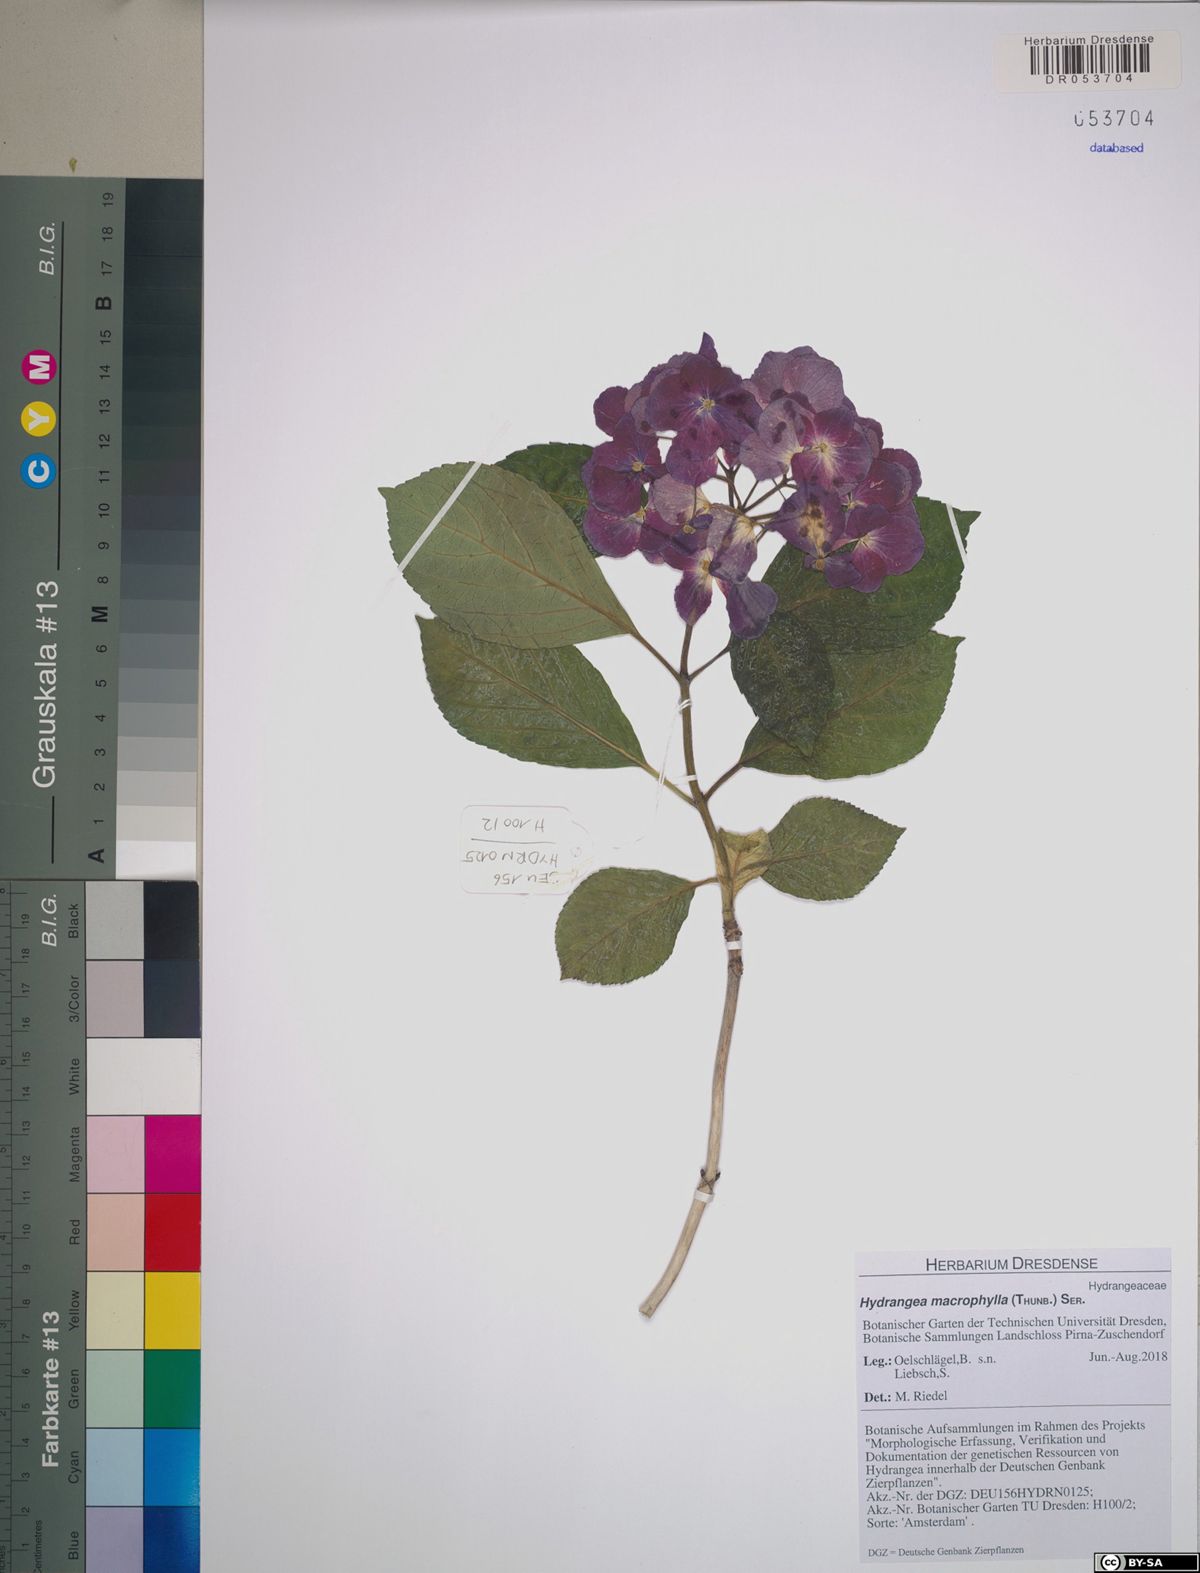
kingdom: Plantae
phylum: Tracheophyta
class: Magnoliopsida
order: Cornales
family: Hydrangeaceae
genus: Hydrangea
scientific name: Hydrangea macrophylla
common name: Hydrangea
